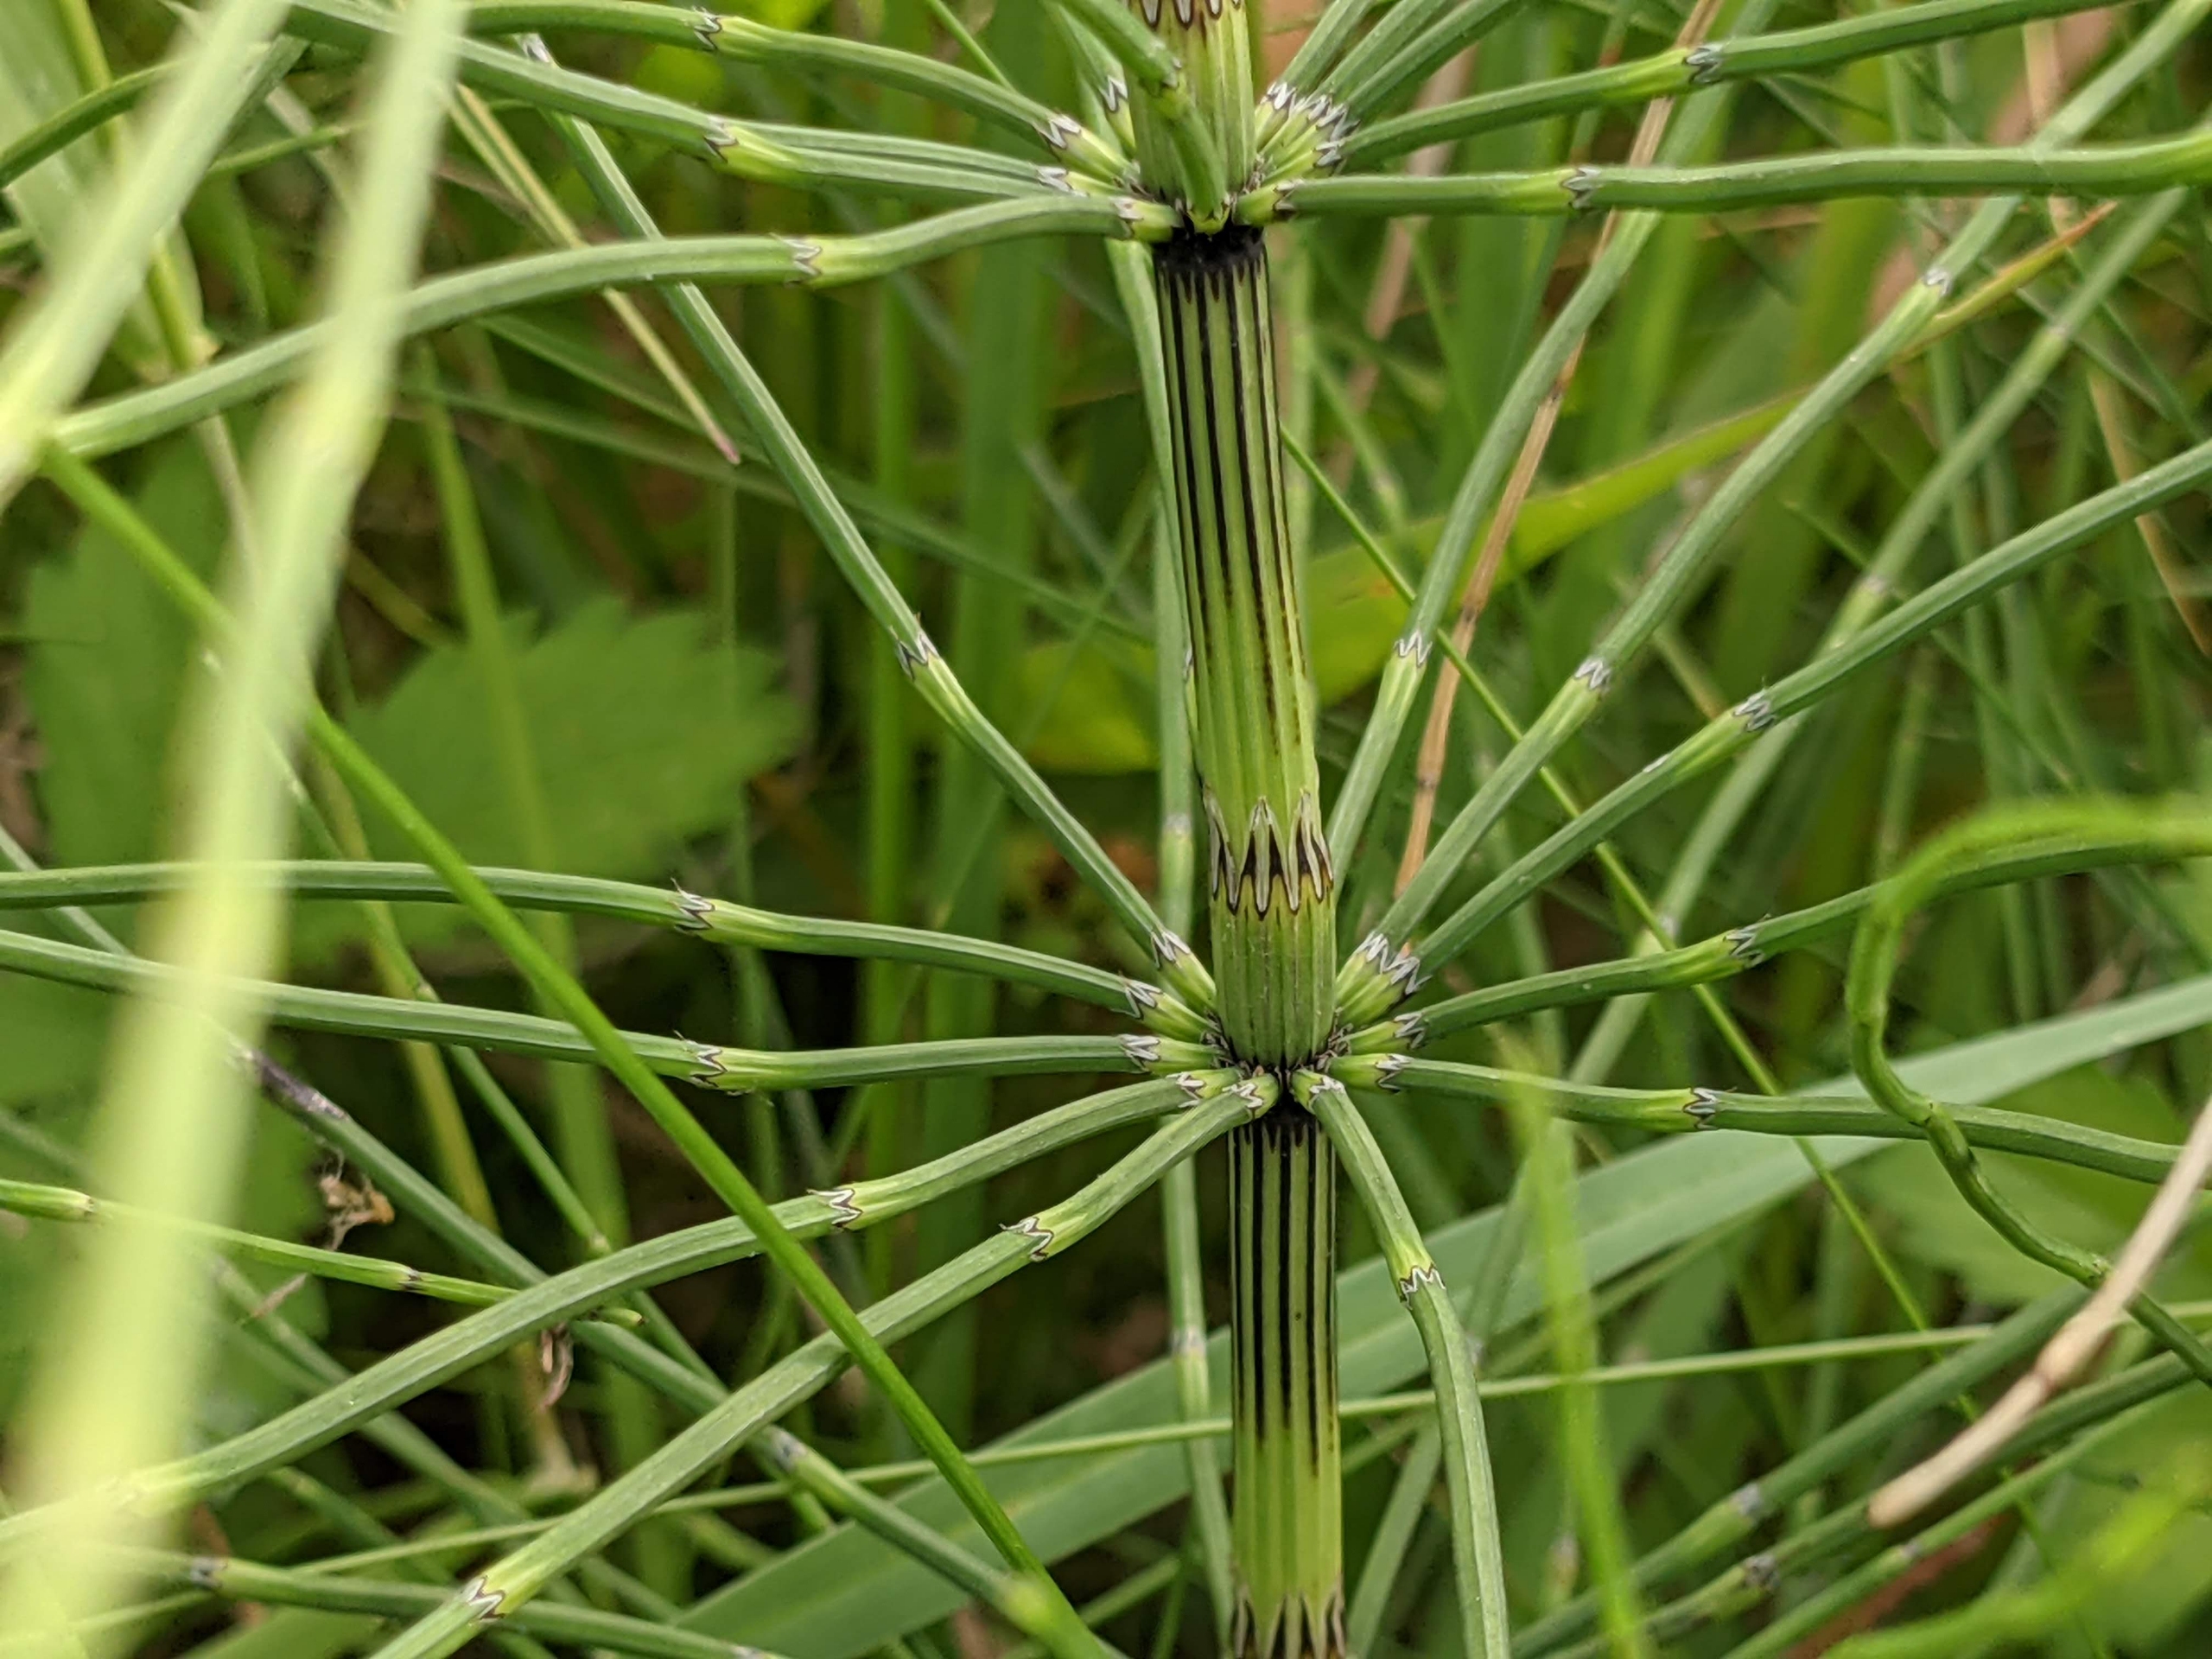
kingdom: Plantae
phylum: Tracheophyta
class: Polypodiopsida
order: Equisetales
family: Equisetaceae
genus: Equisetum
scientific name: Equisetum palustre
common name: Kær-padderok
